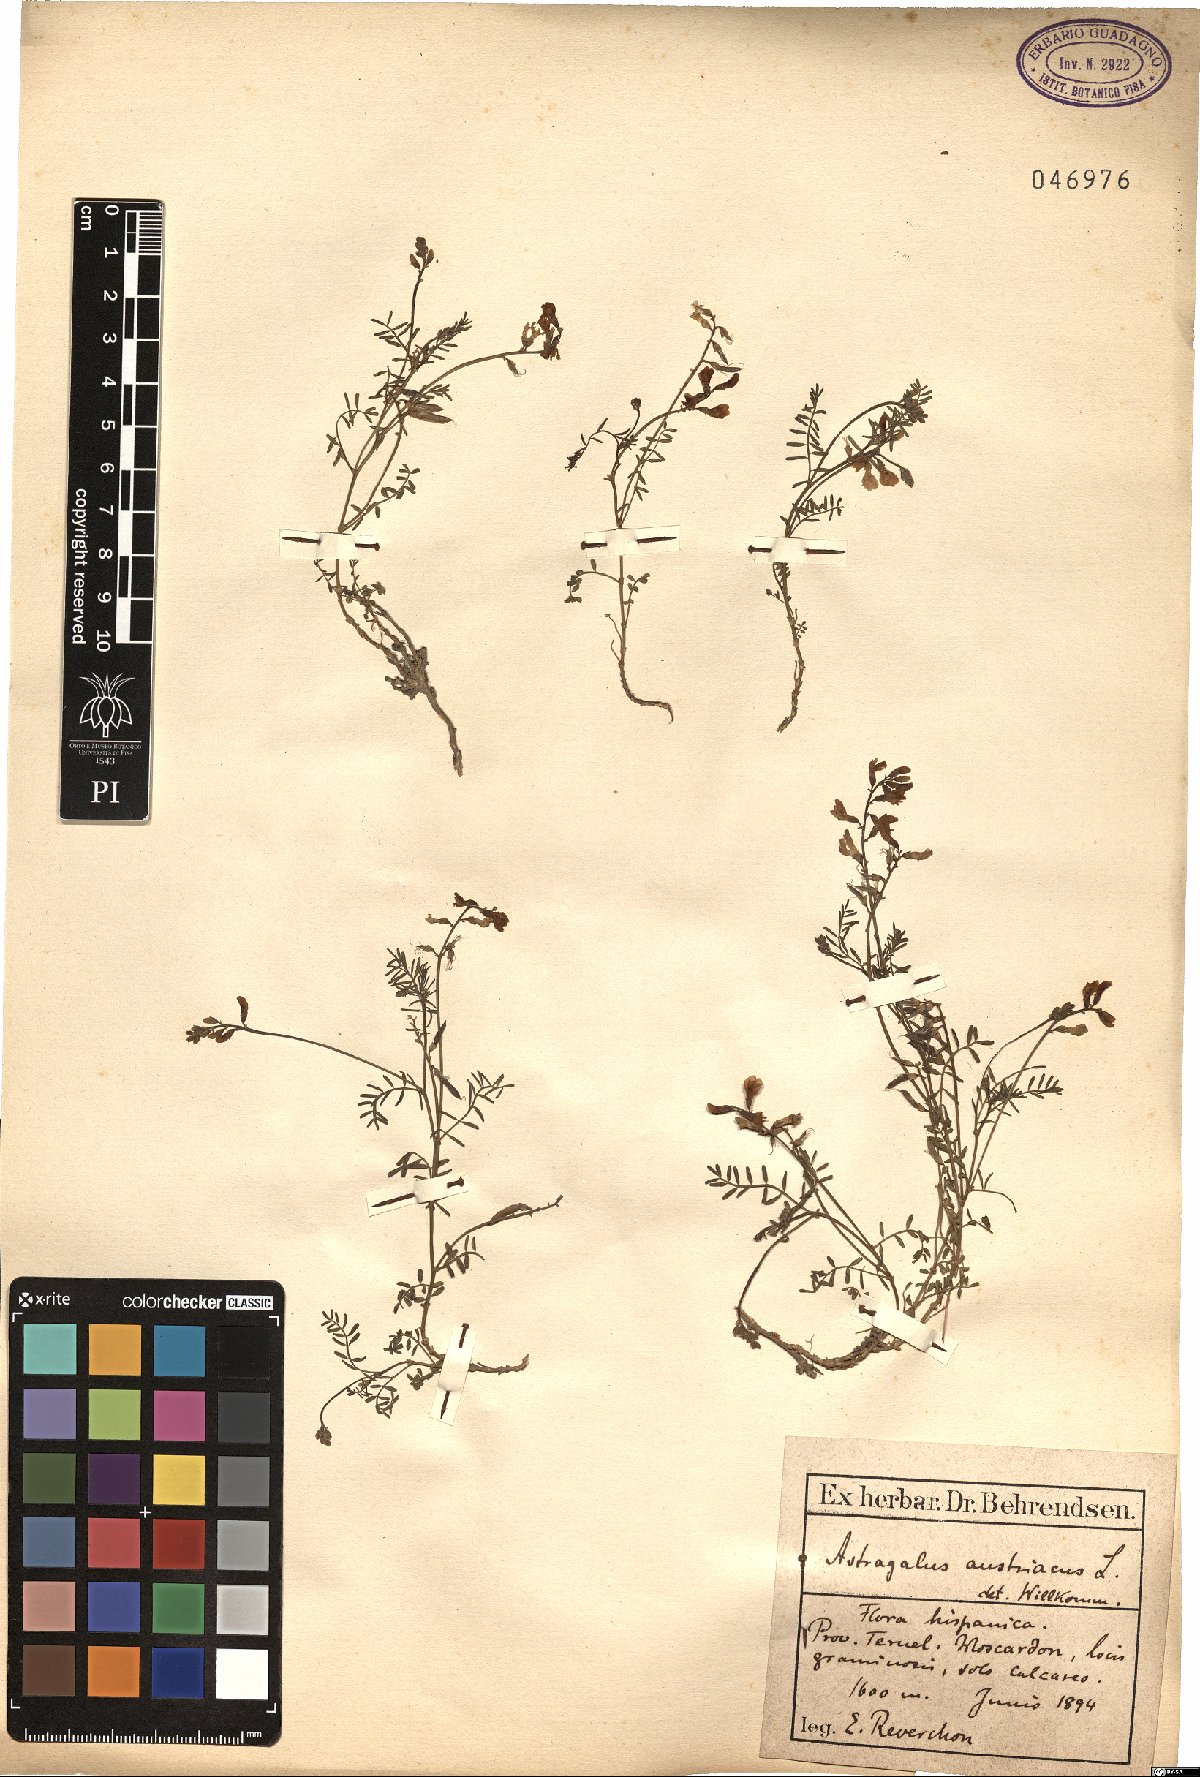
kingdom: Plantae
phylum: Tracheophyta
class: Magnoliopsida
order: Fabales
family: Fabaceae
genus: Astragalus
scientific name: Astragalus austriacus
